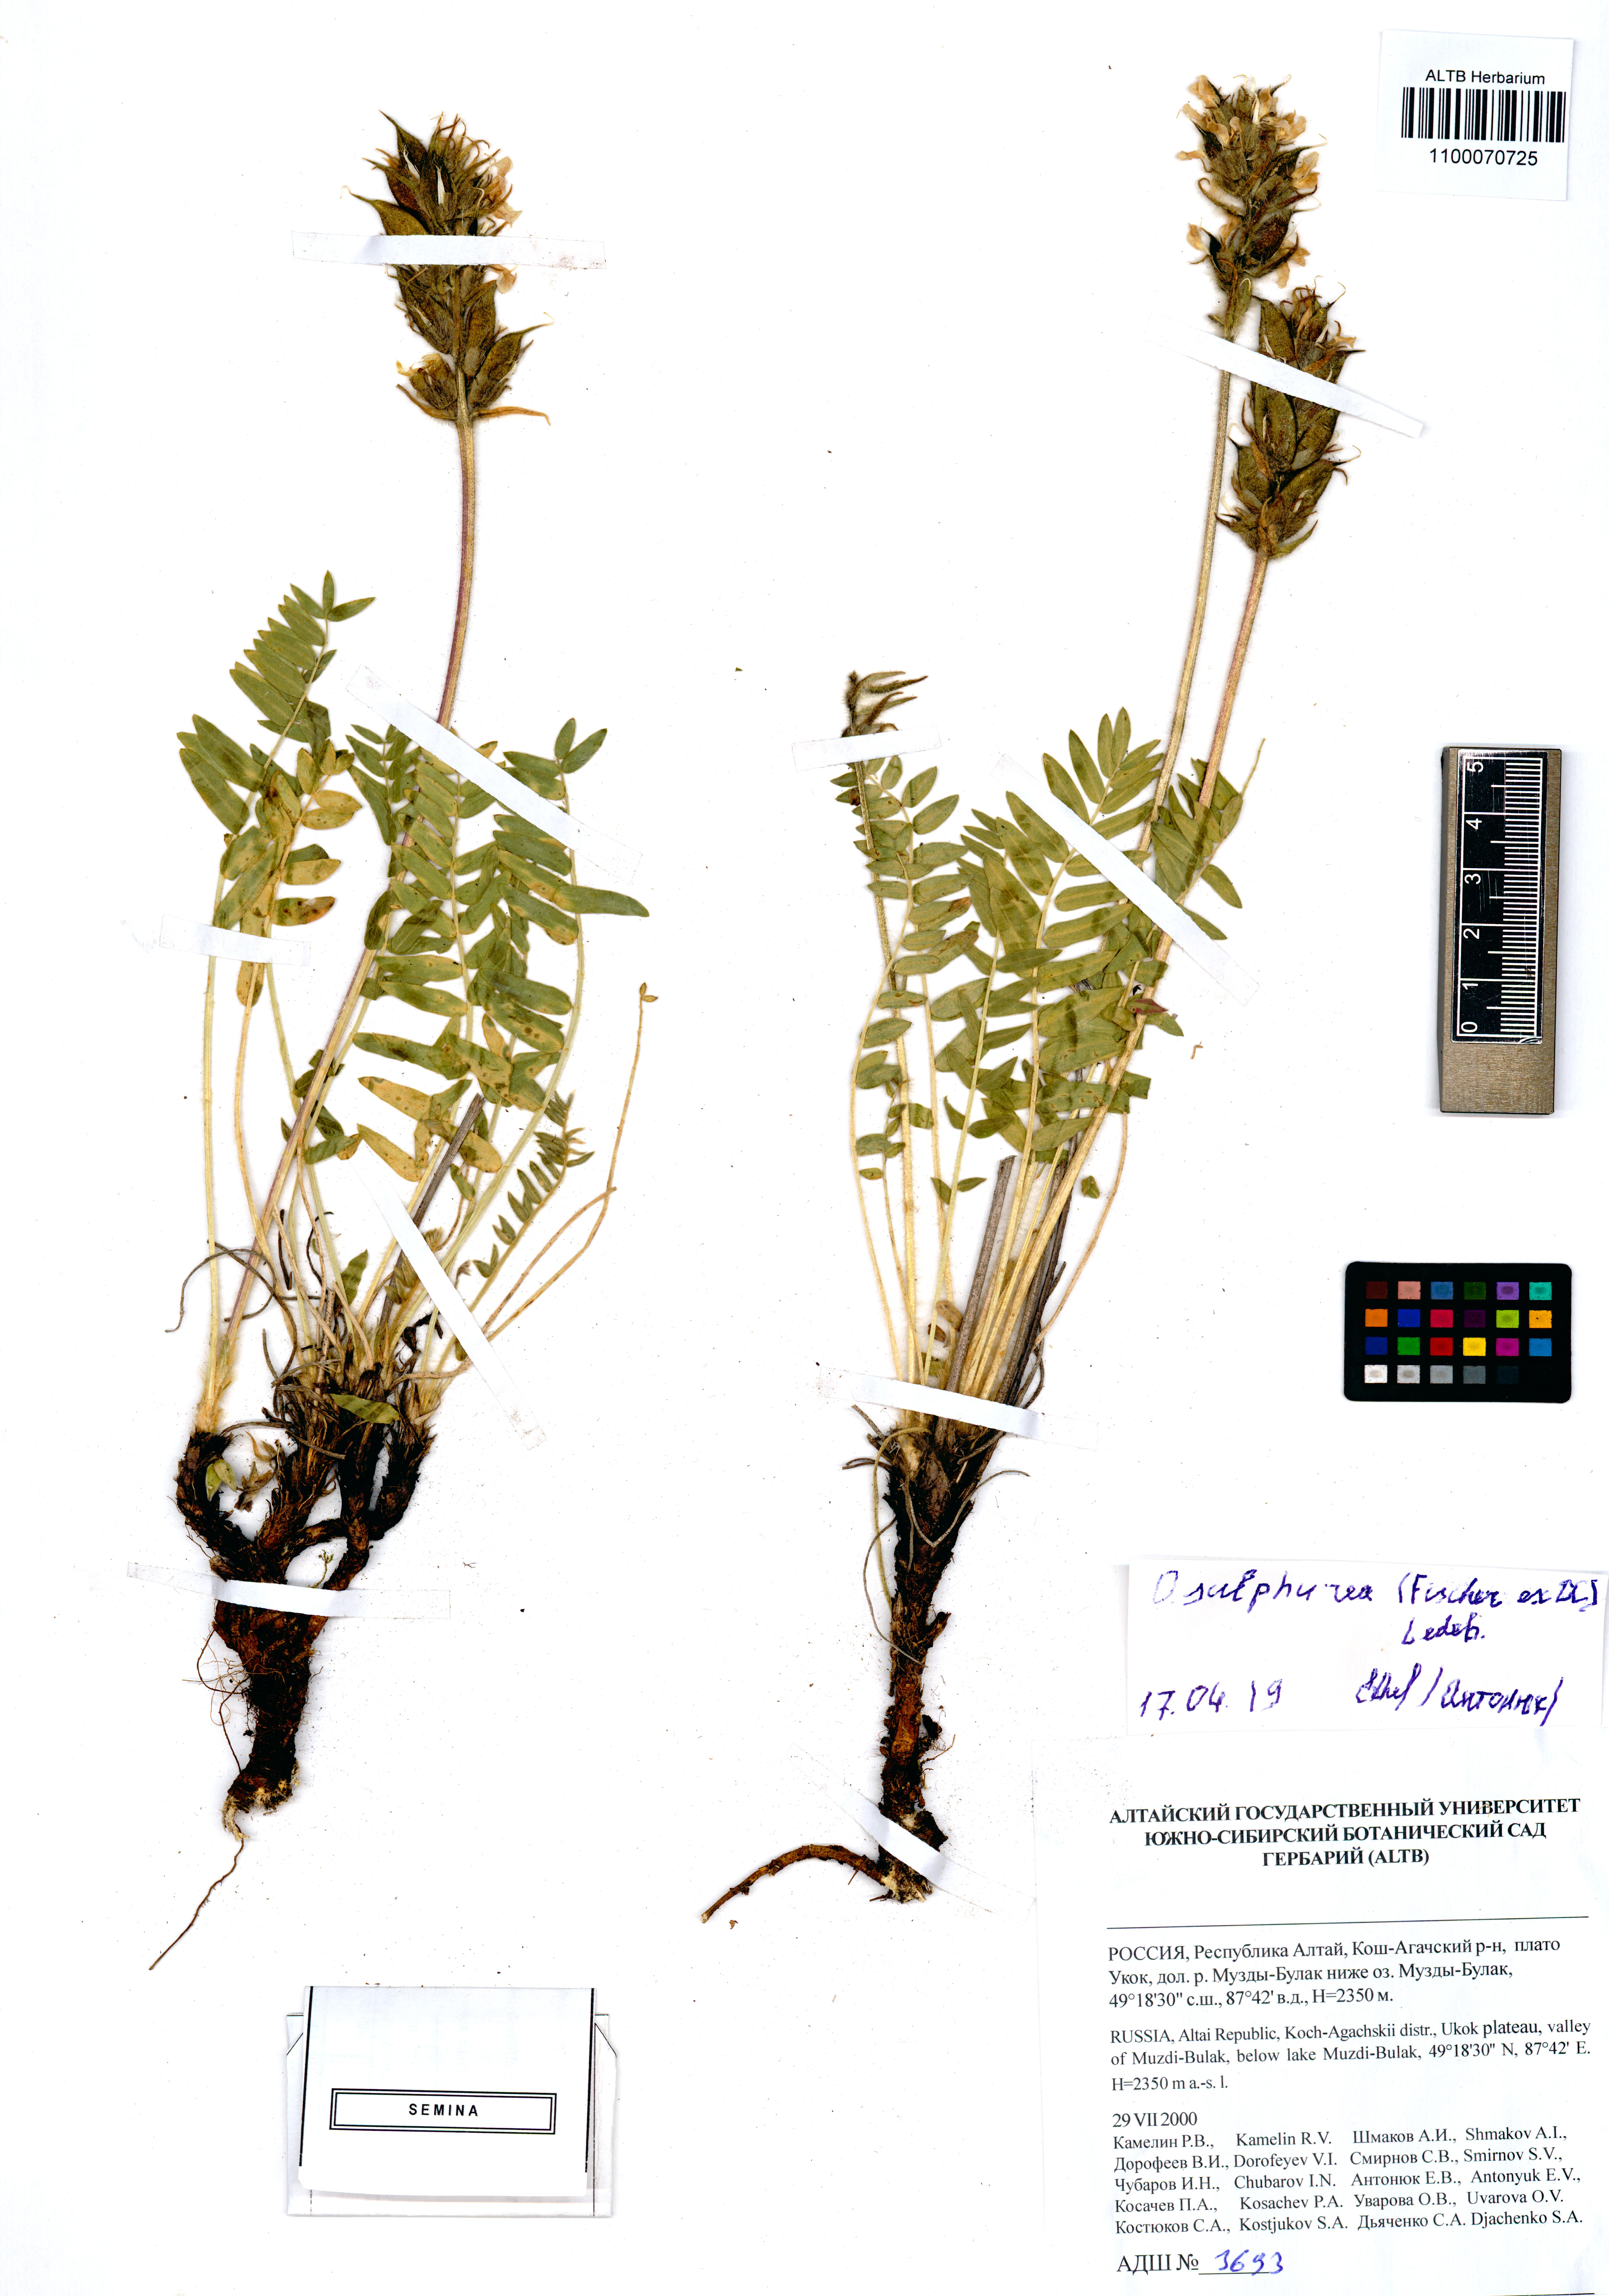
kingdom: Plantae
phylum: Tracheophyta
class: Magnoliopsida
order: Fabales
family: Fabaceae
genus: Oxytropis
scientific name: Oxytropis sulphurea
